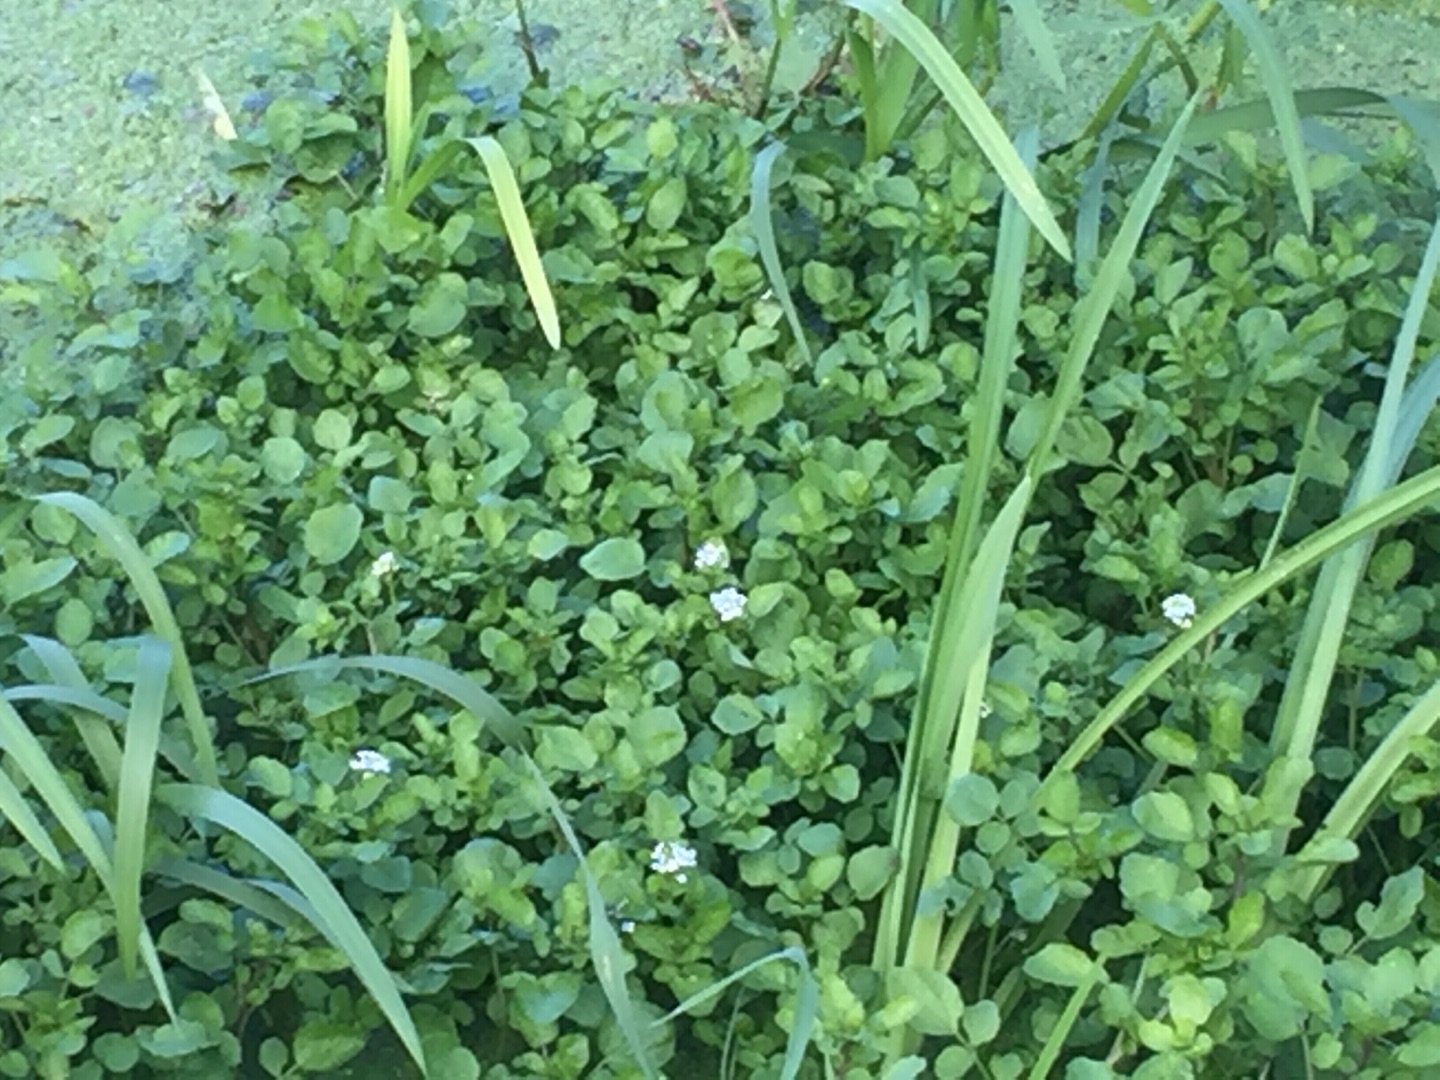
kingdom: Plantae
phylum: Tracheophyta
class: Magnoliopsida
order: Brassicales
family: Brassicaceae
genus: Nasturtium
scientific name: Nasturtium
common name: Brøndkarseslægten
